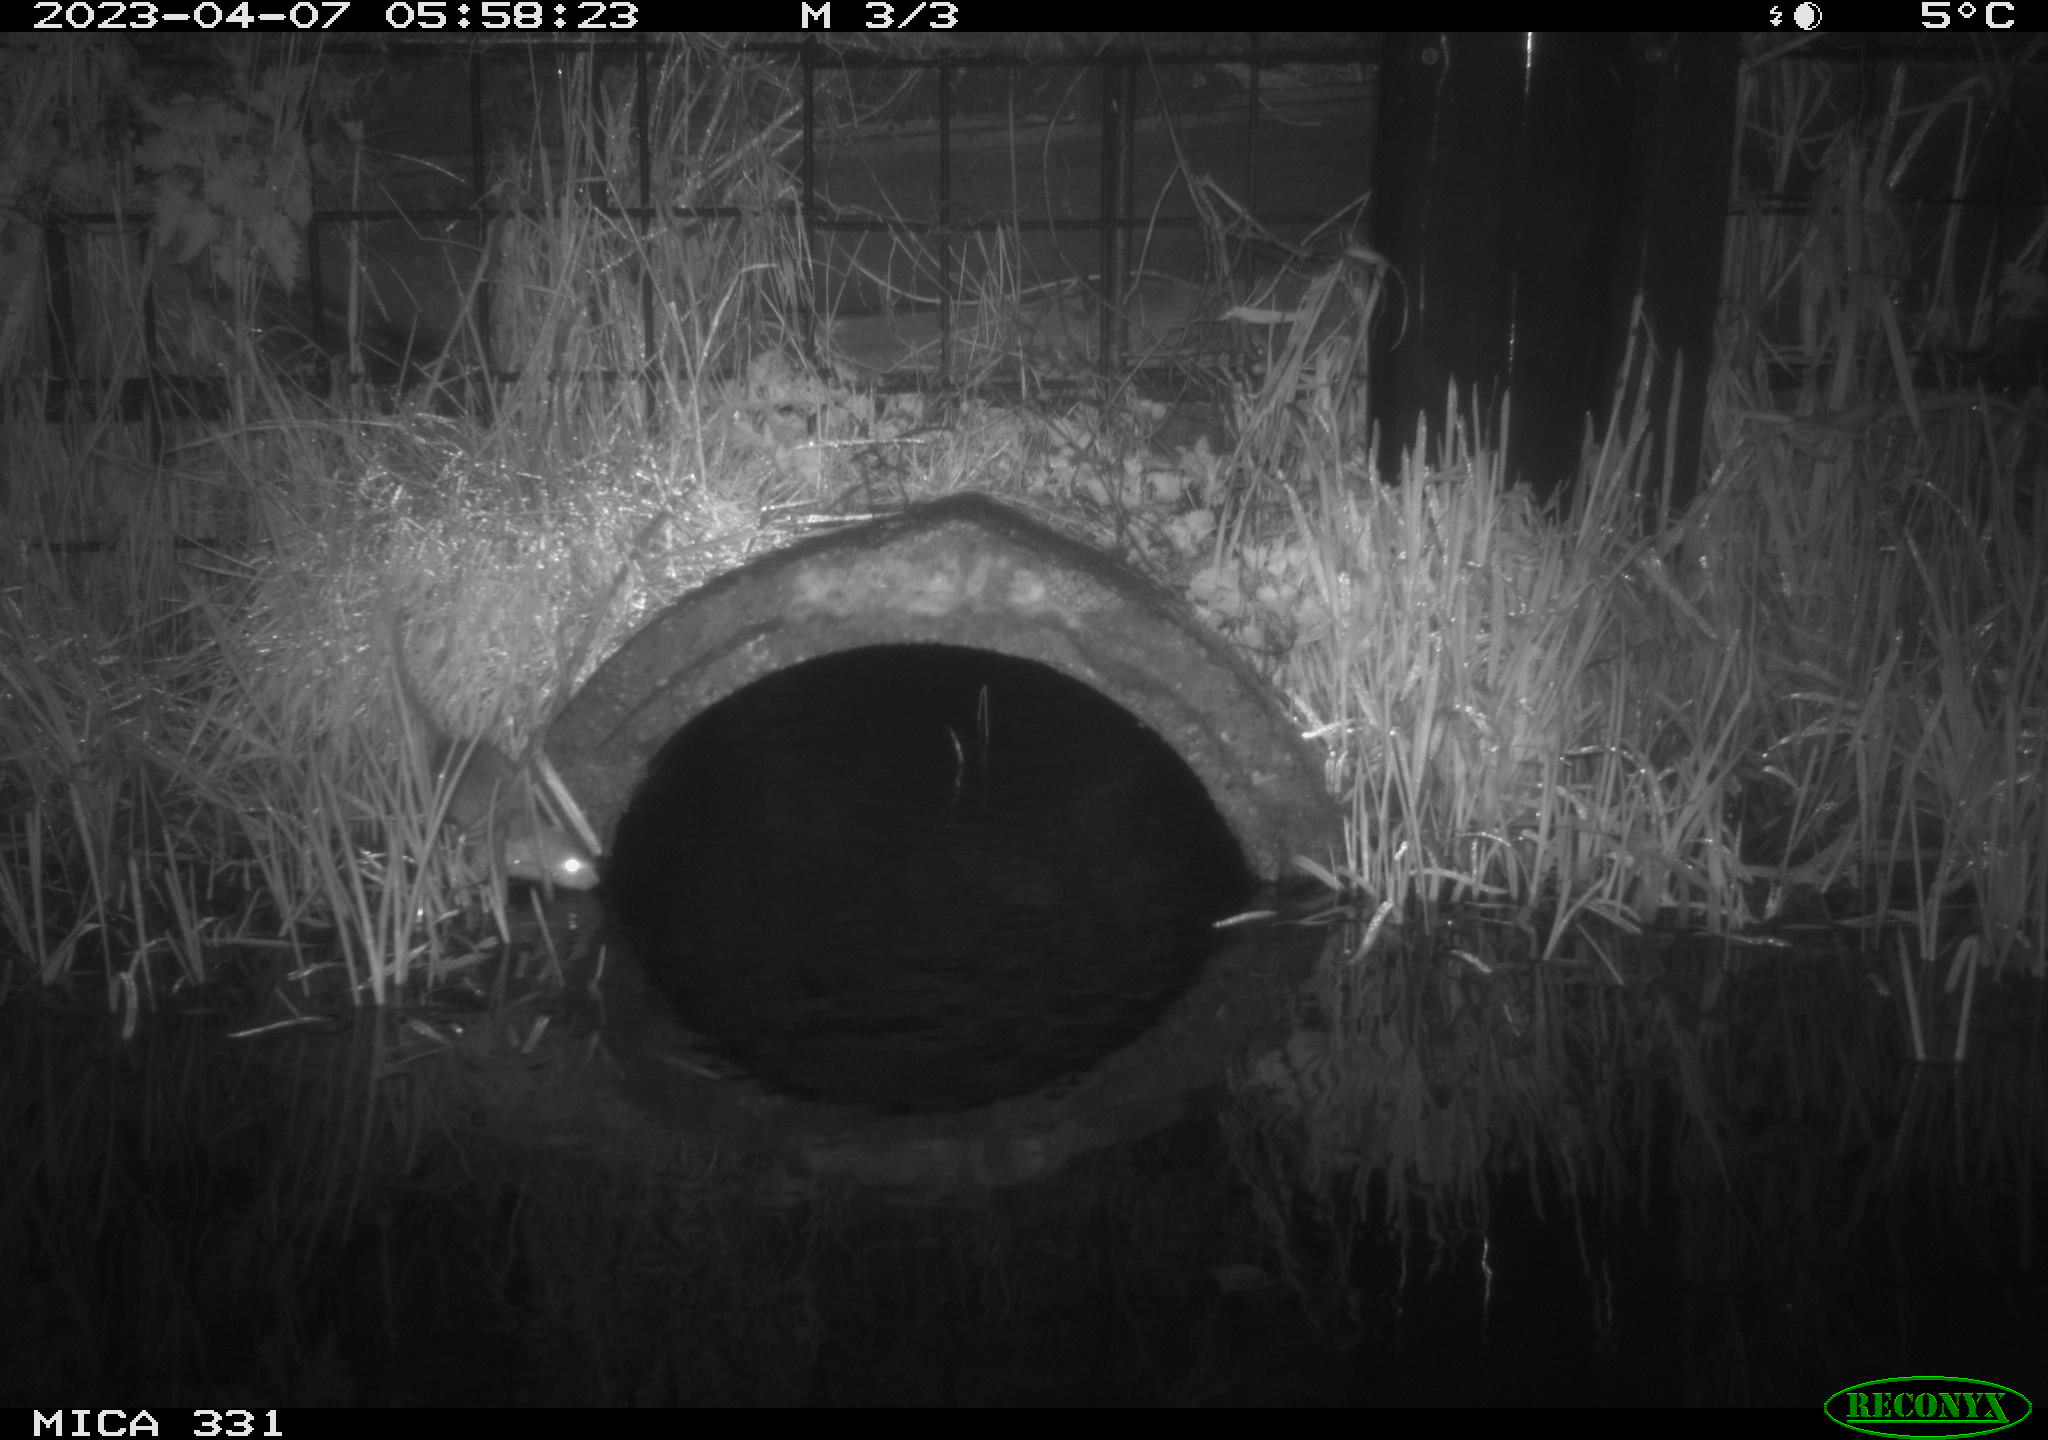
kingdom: Animalia
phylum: Chordata
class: Mammalia
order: Rodentia
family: Muridae
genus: Rattus
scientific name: Rattus norvegicus
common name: Brown rat
